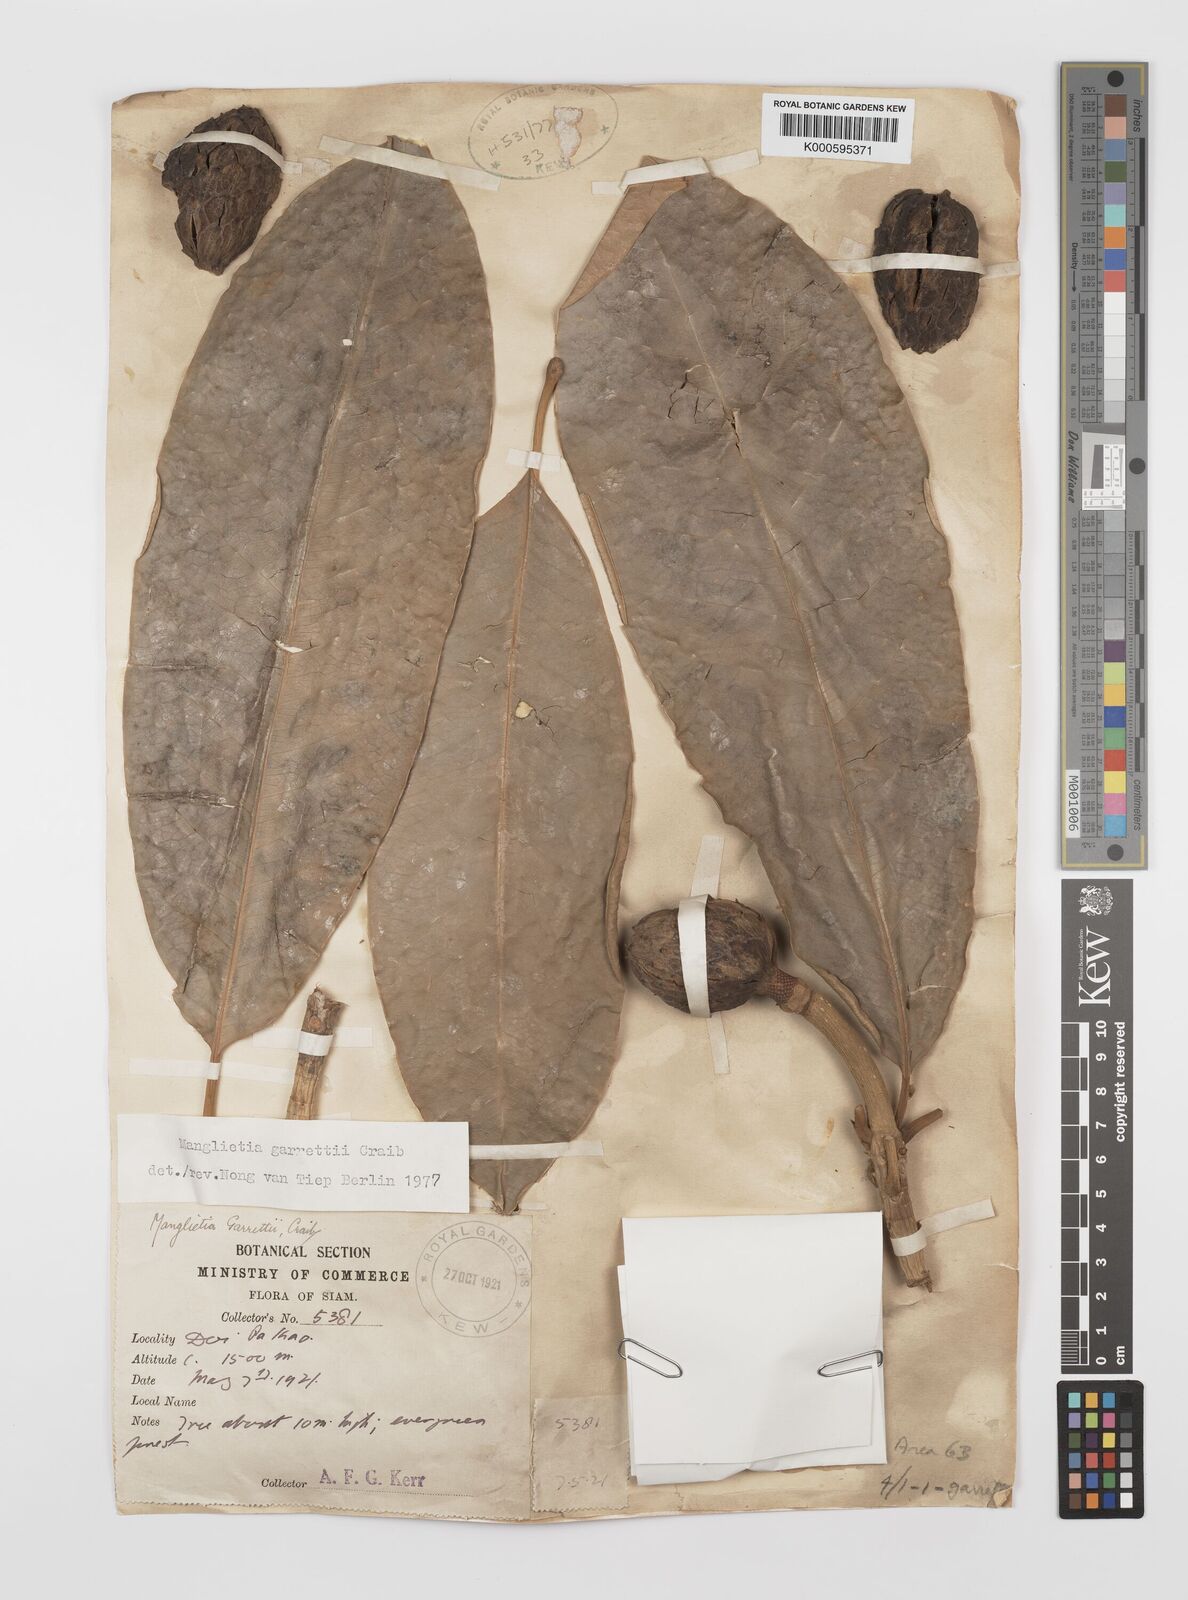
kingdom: Plantae
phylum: Tracheophyta
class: Magnoliopsida
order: Magnoliales
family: Magnoliaceae
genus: Magnolia
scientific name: Magnolia garrettii
